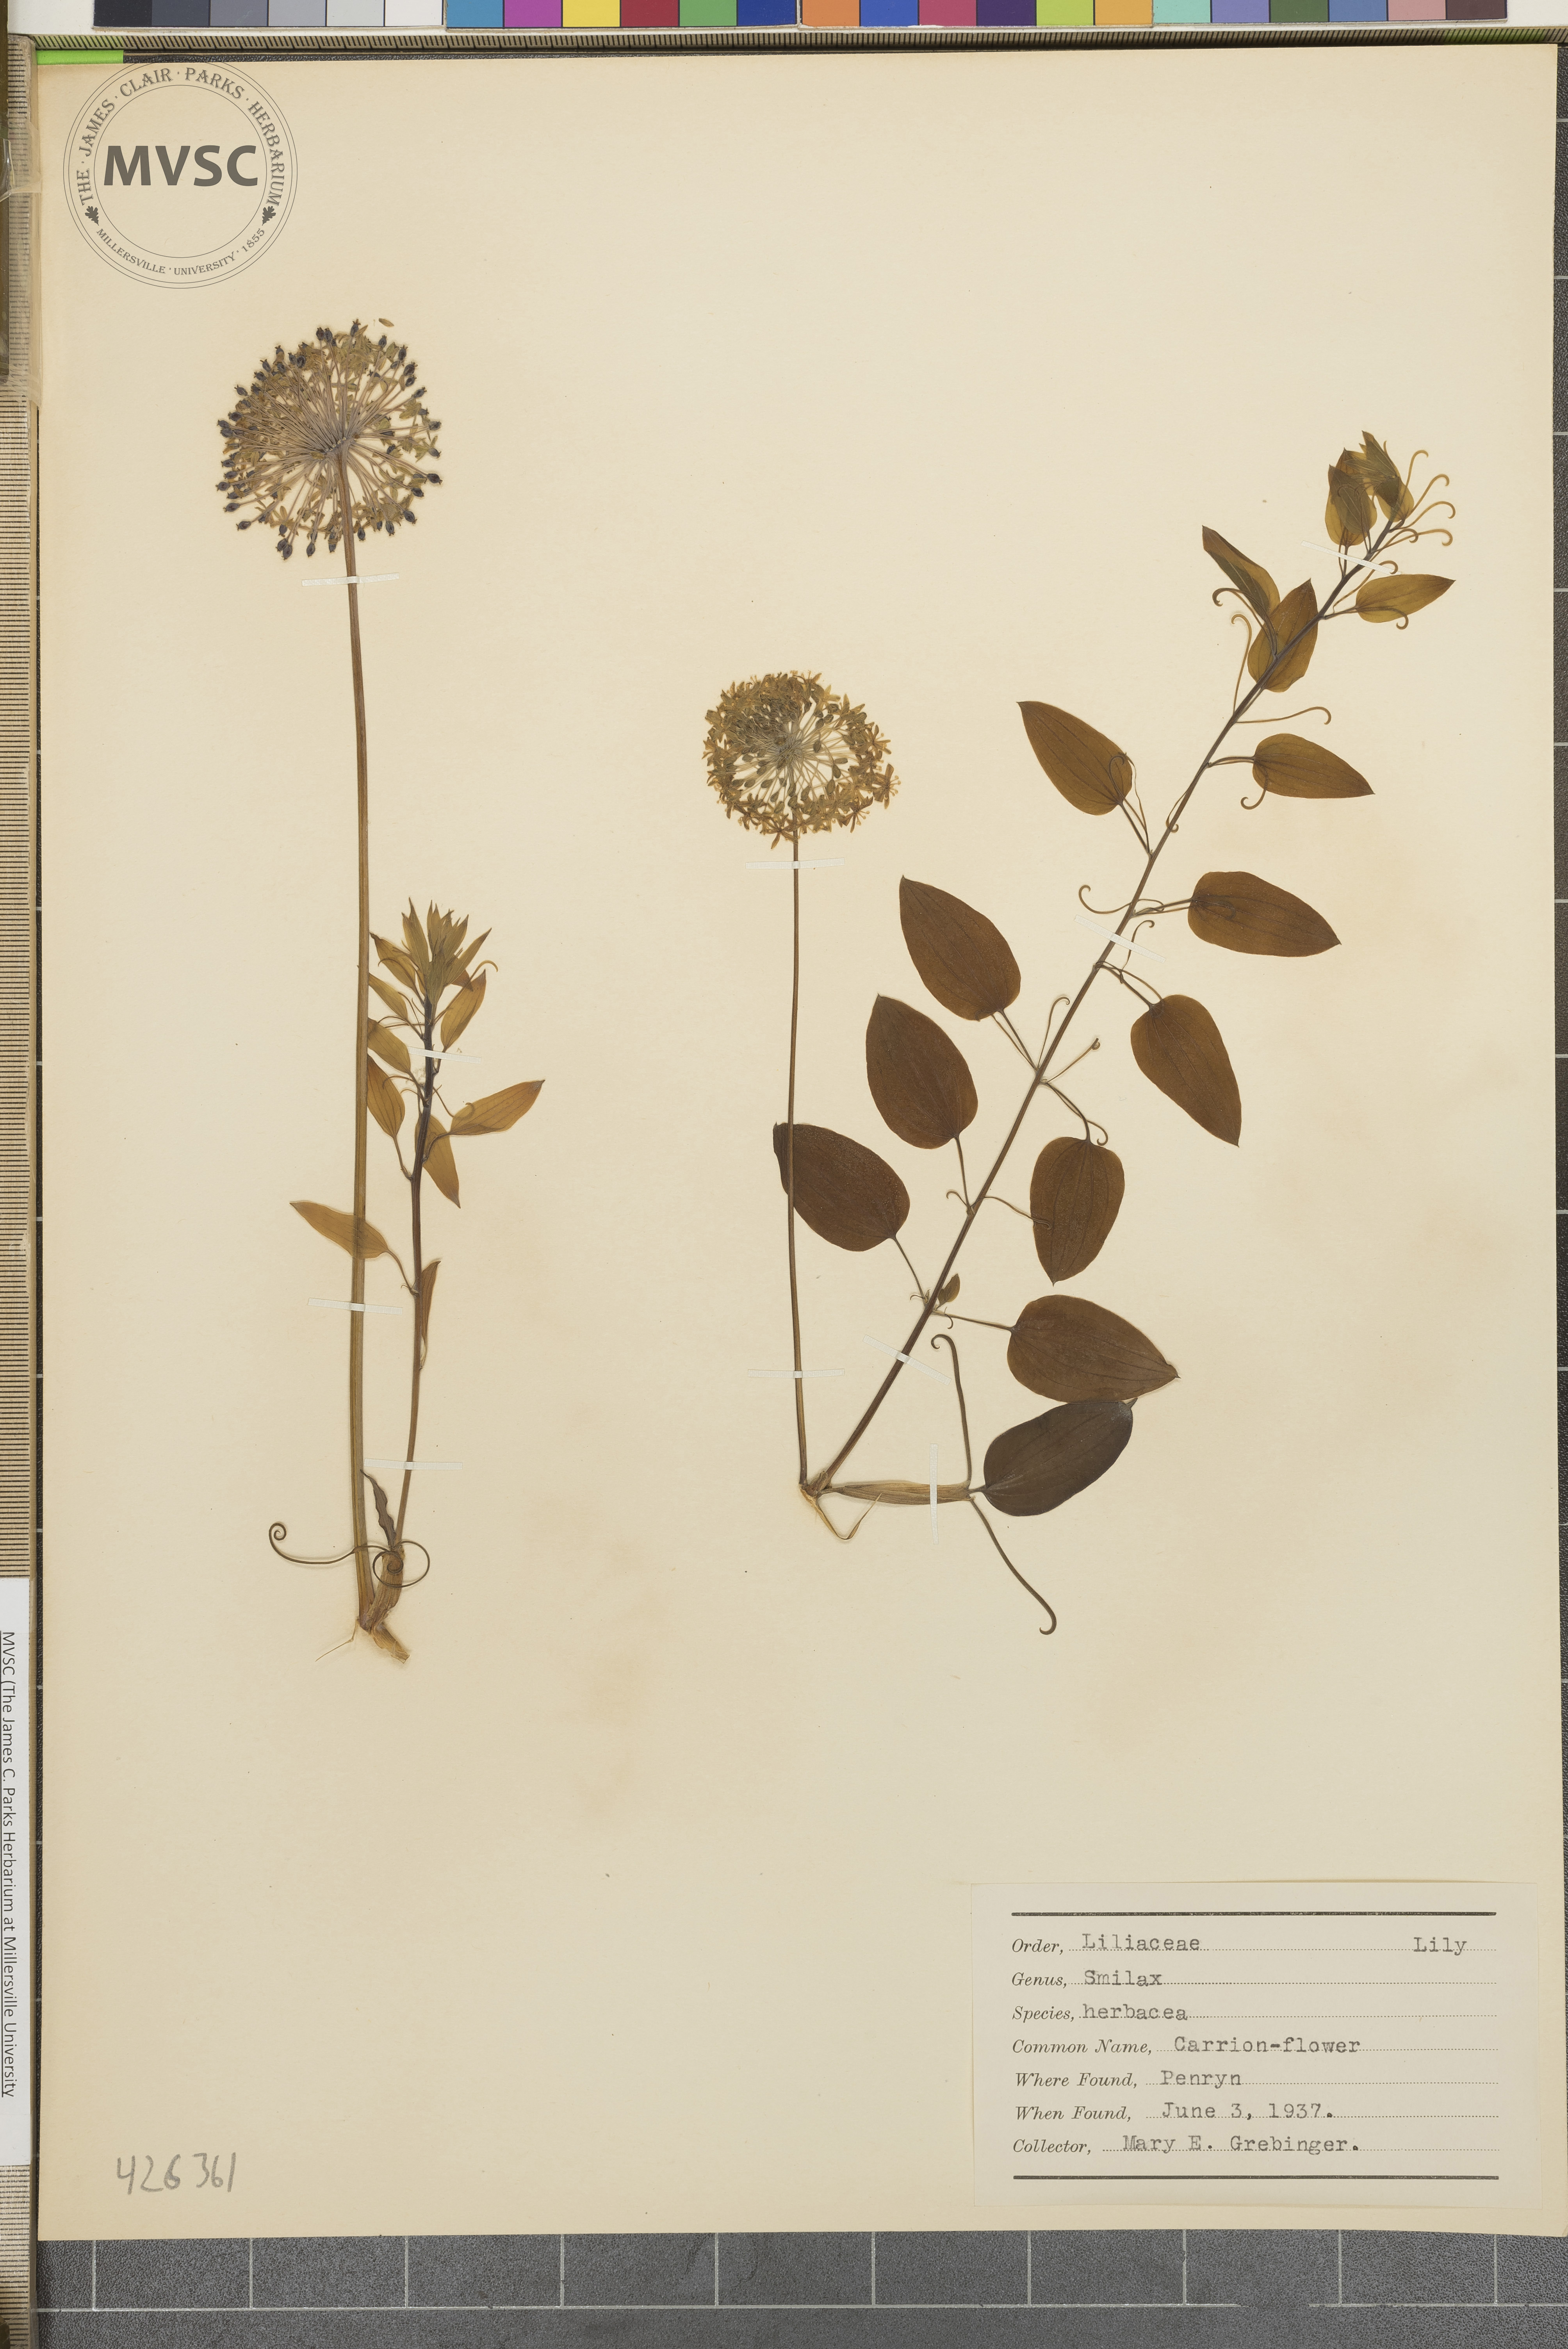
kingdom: Plantae
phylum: Tracheophyta
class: Liliopsida
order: Liliales
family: Smilacaceae
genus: Smilax
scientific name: Smilax herbacea
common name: Carrion-flower
